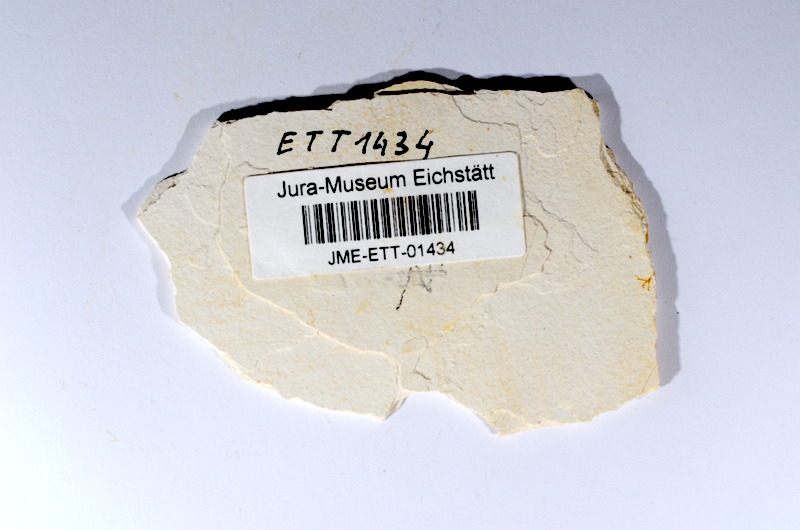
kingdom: Animalia
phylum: Chordata
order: Salmoniformes
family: Orthogonikleithridae
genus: Orthogonikleithrus
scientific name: Orthogonikleithrus hoelli
